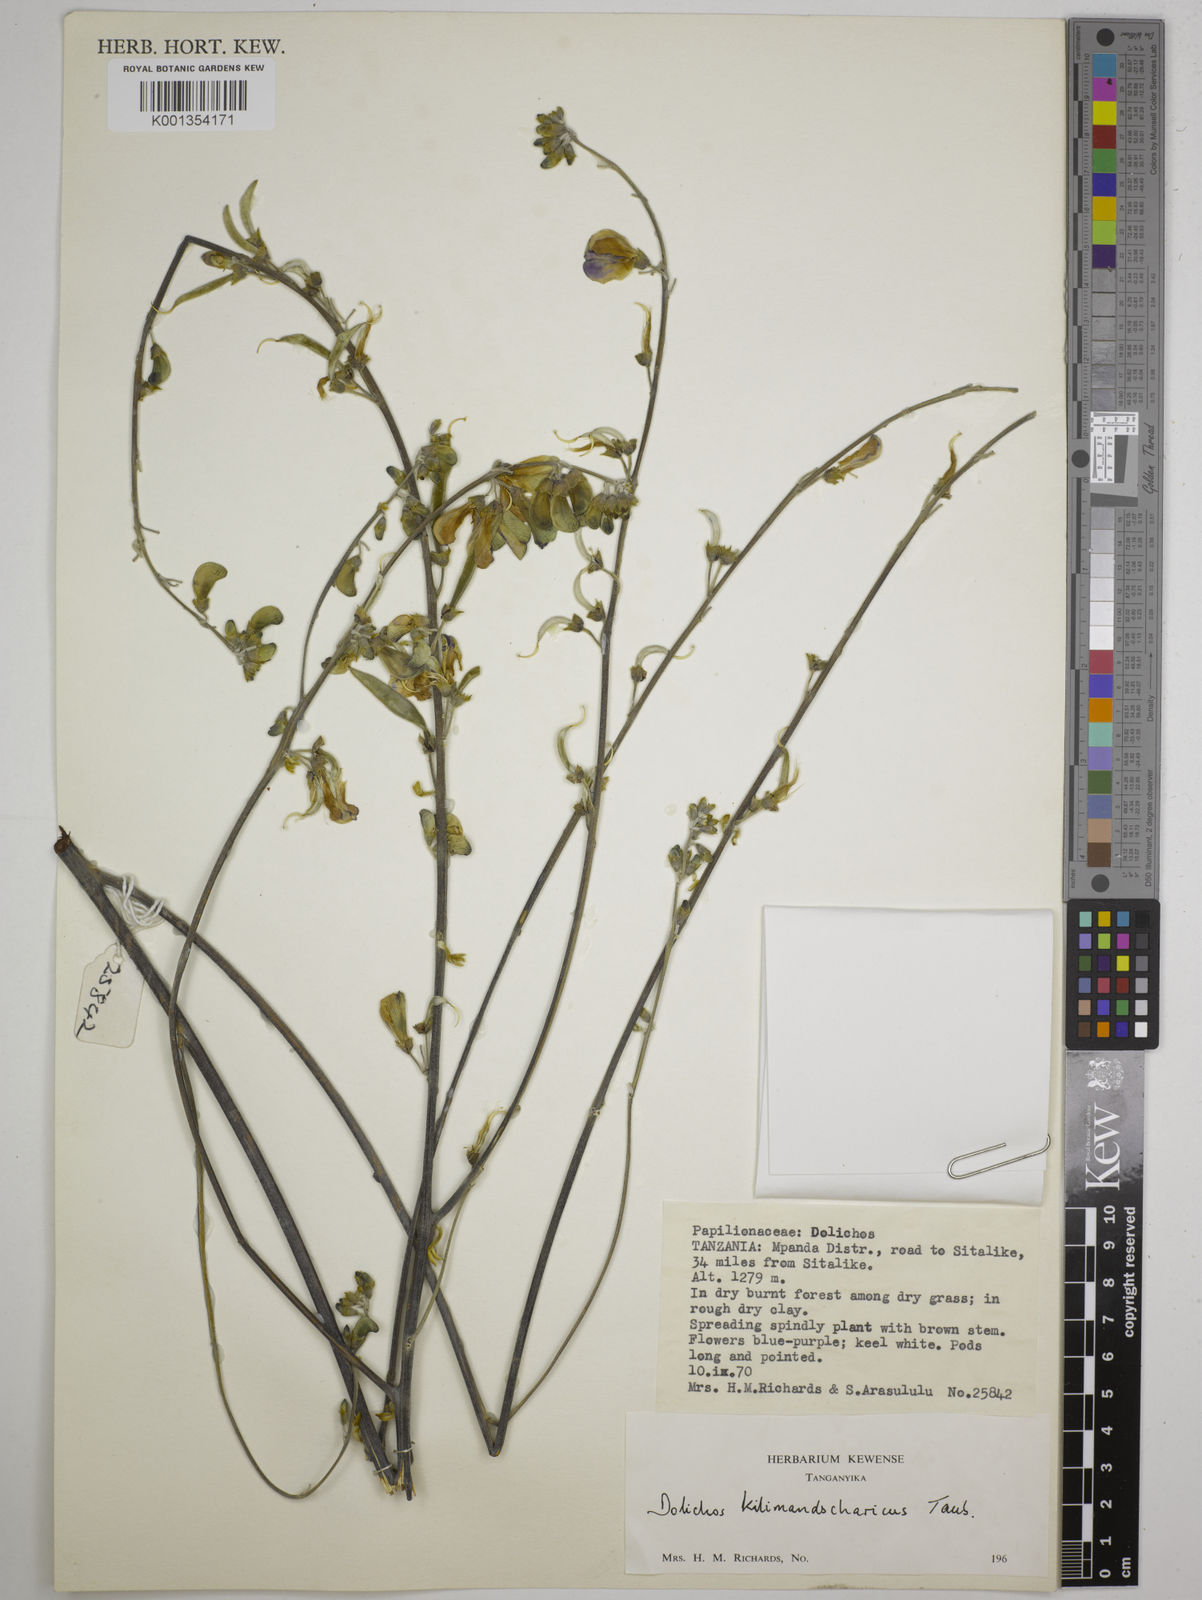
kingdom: Plantae
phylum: Tracheophyta
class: Magnoliopsida
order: Fabales
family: Fabaceae
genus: Dolichos
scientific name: Dolichos kilimandscharicus
